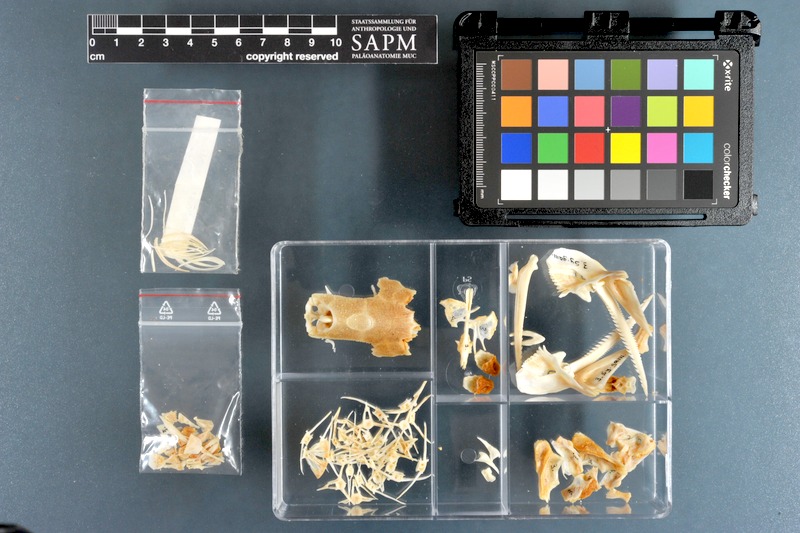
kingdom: Animalia
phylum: Chordata
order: Siluriformes
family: Mochokidae
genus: Synodontis
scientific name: Synodontis schall
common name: Wahrindi
